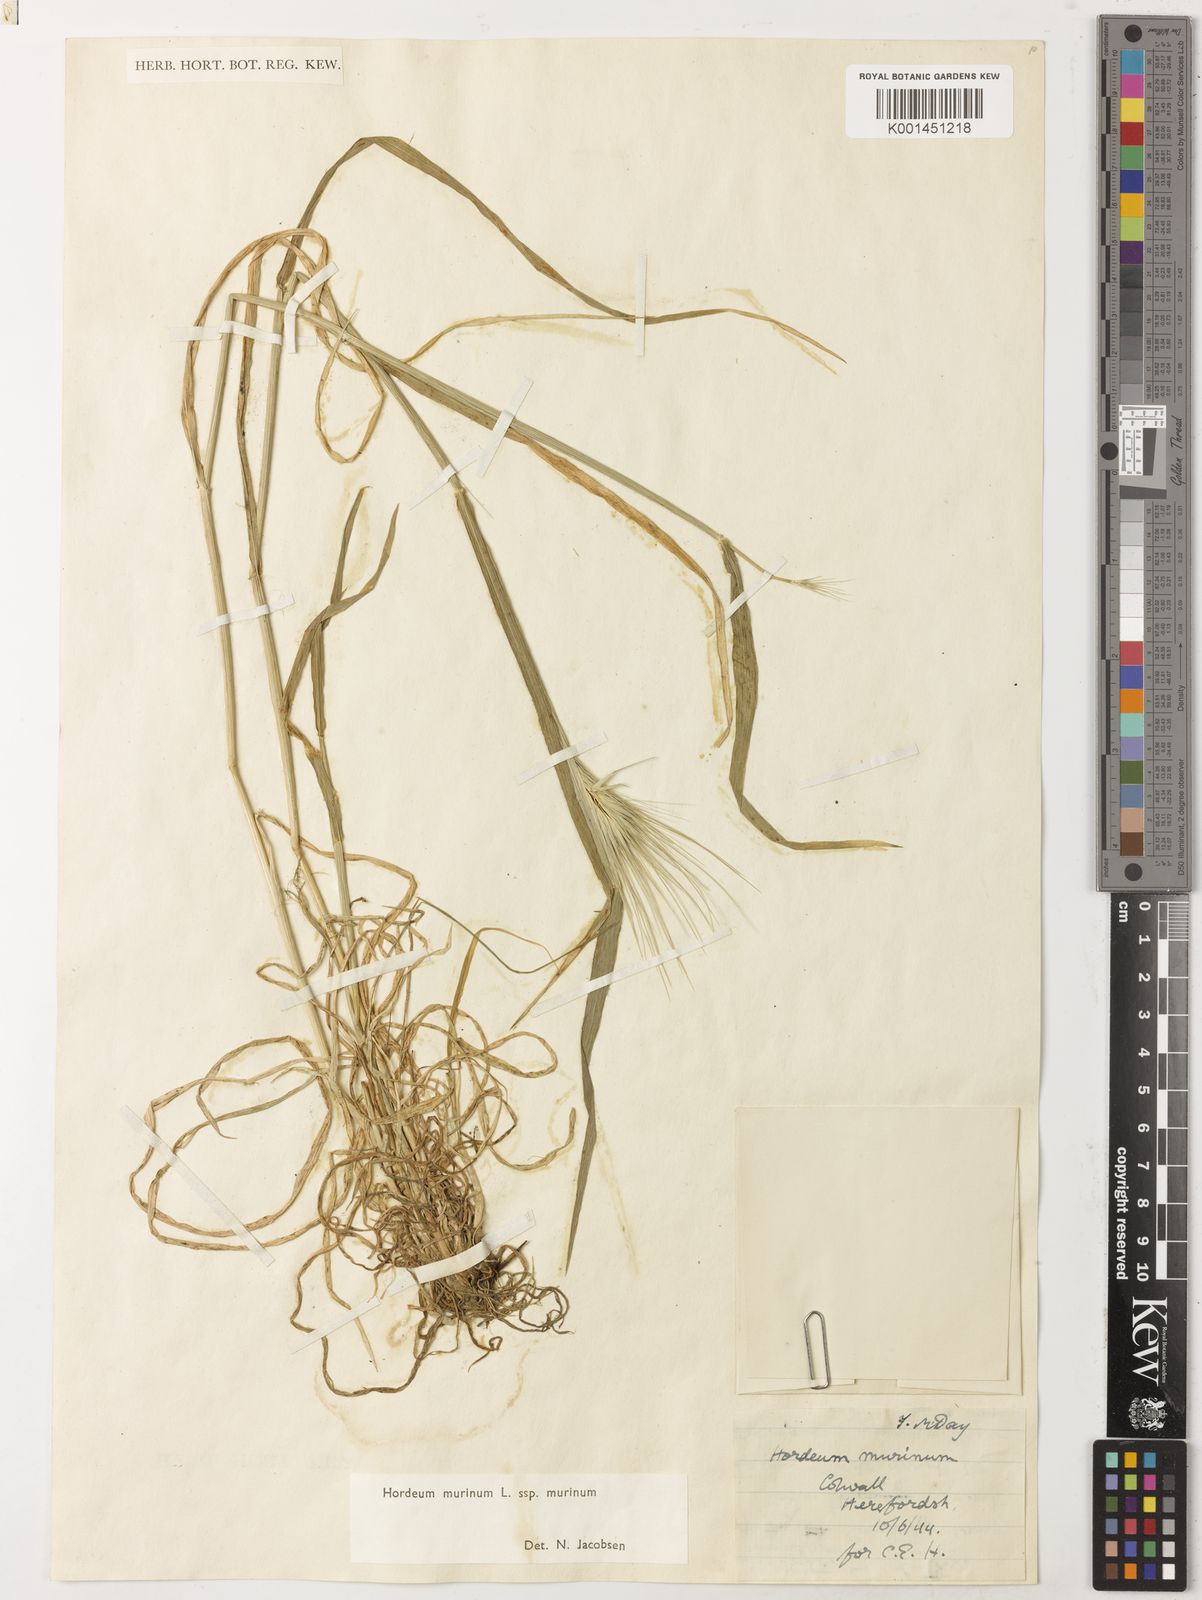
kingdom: Plantae
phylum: Tracheophyta
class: Liliopsida
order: Poales
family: Poaceae
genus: Hordeum
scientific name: Hordeum murinum
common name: Wall barley
